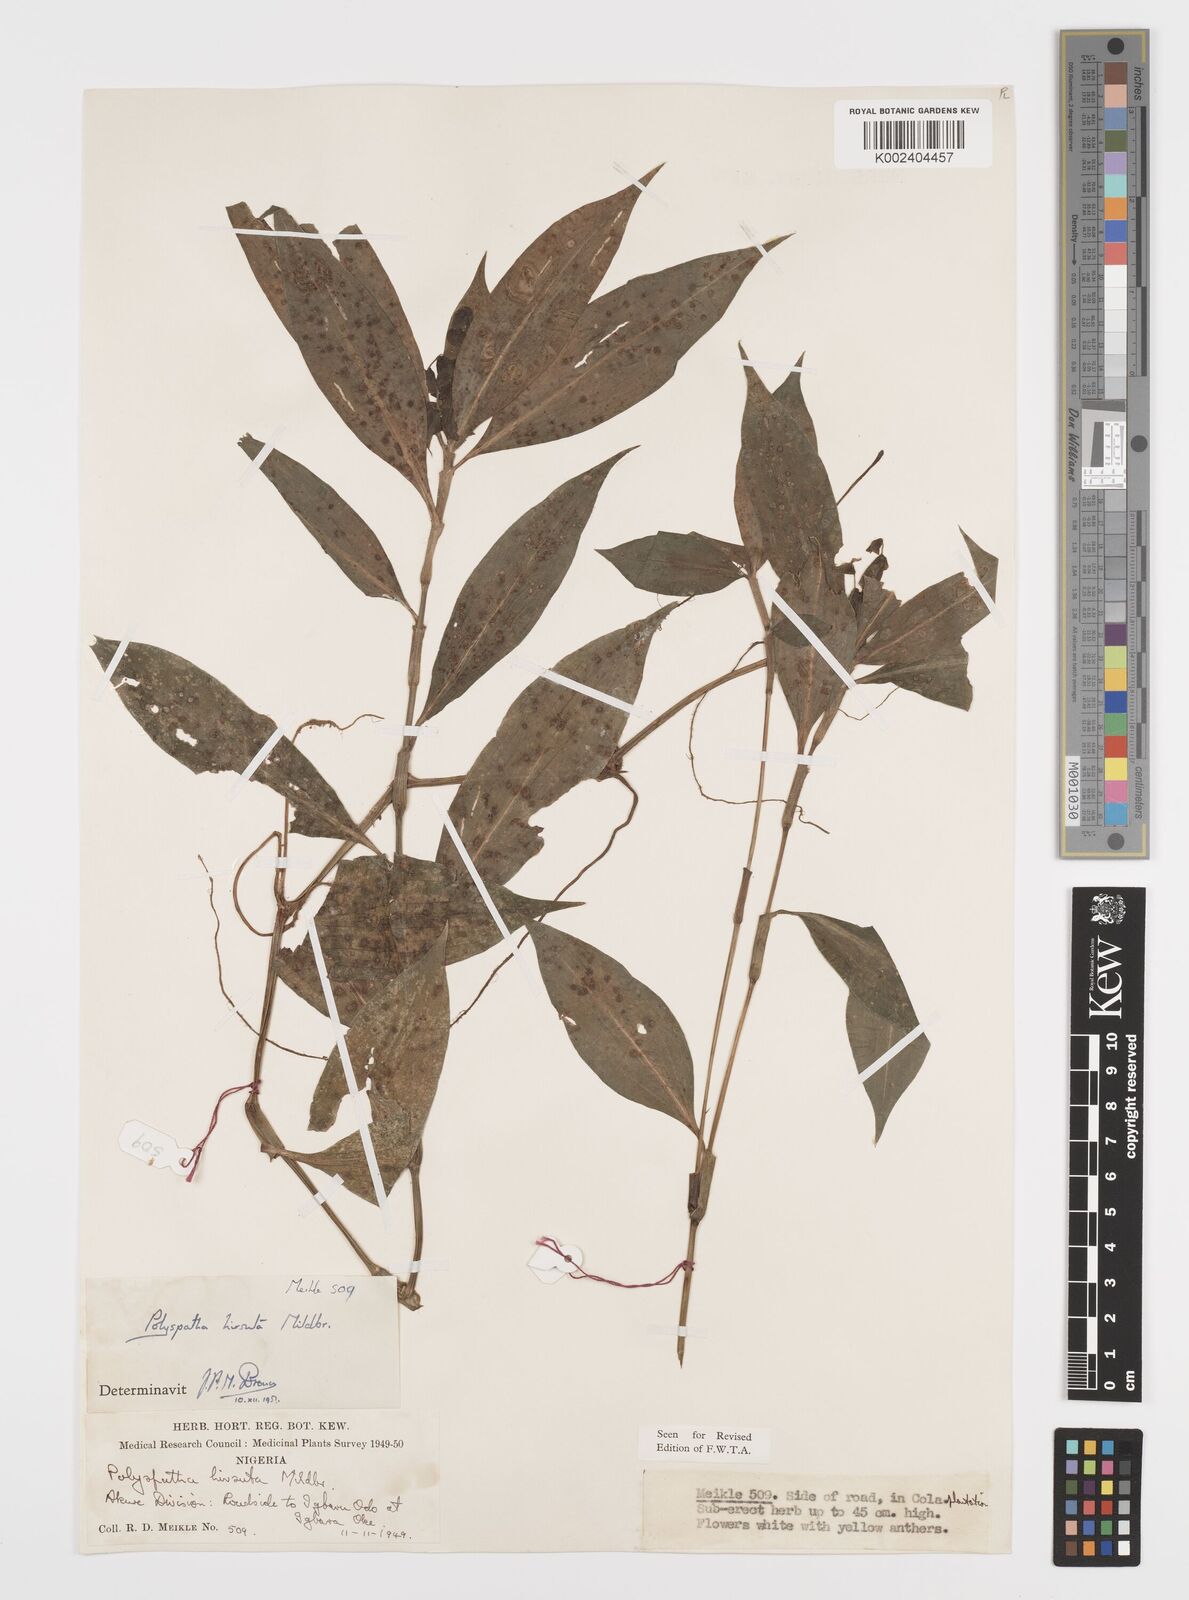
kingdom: Plantae
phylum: Tracheophyta
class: Liliopsida
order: Commelinales
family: Commelinaceae
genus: Polyspatha
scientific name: Polyspatha hirsuta
